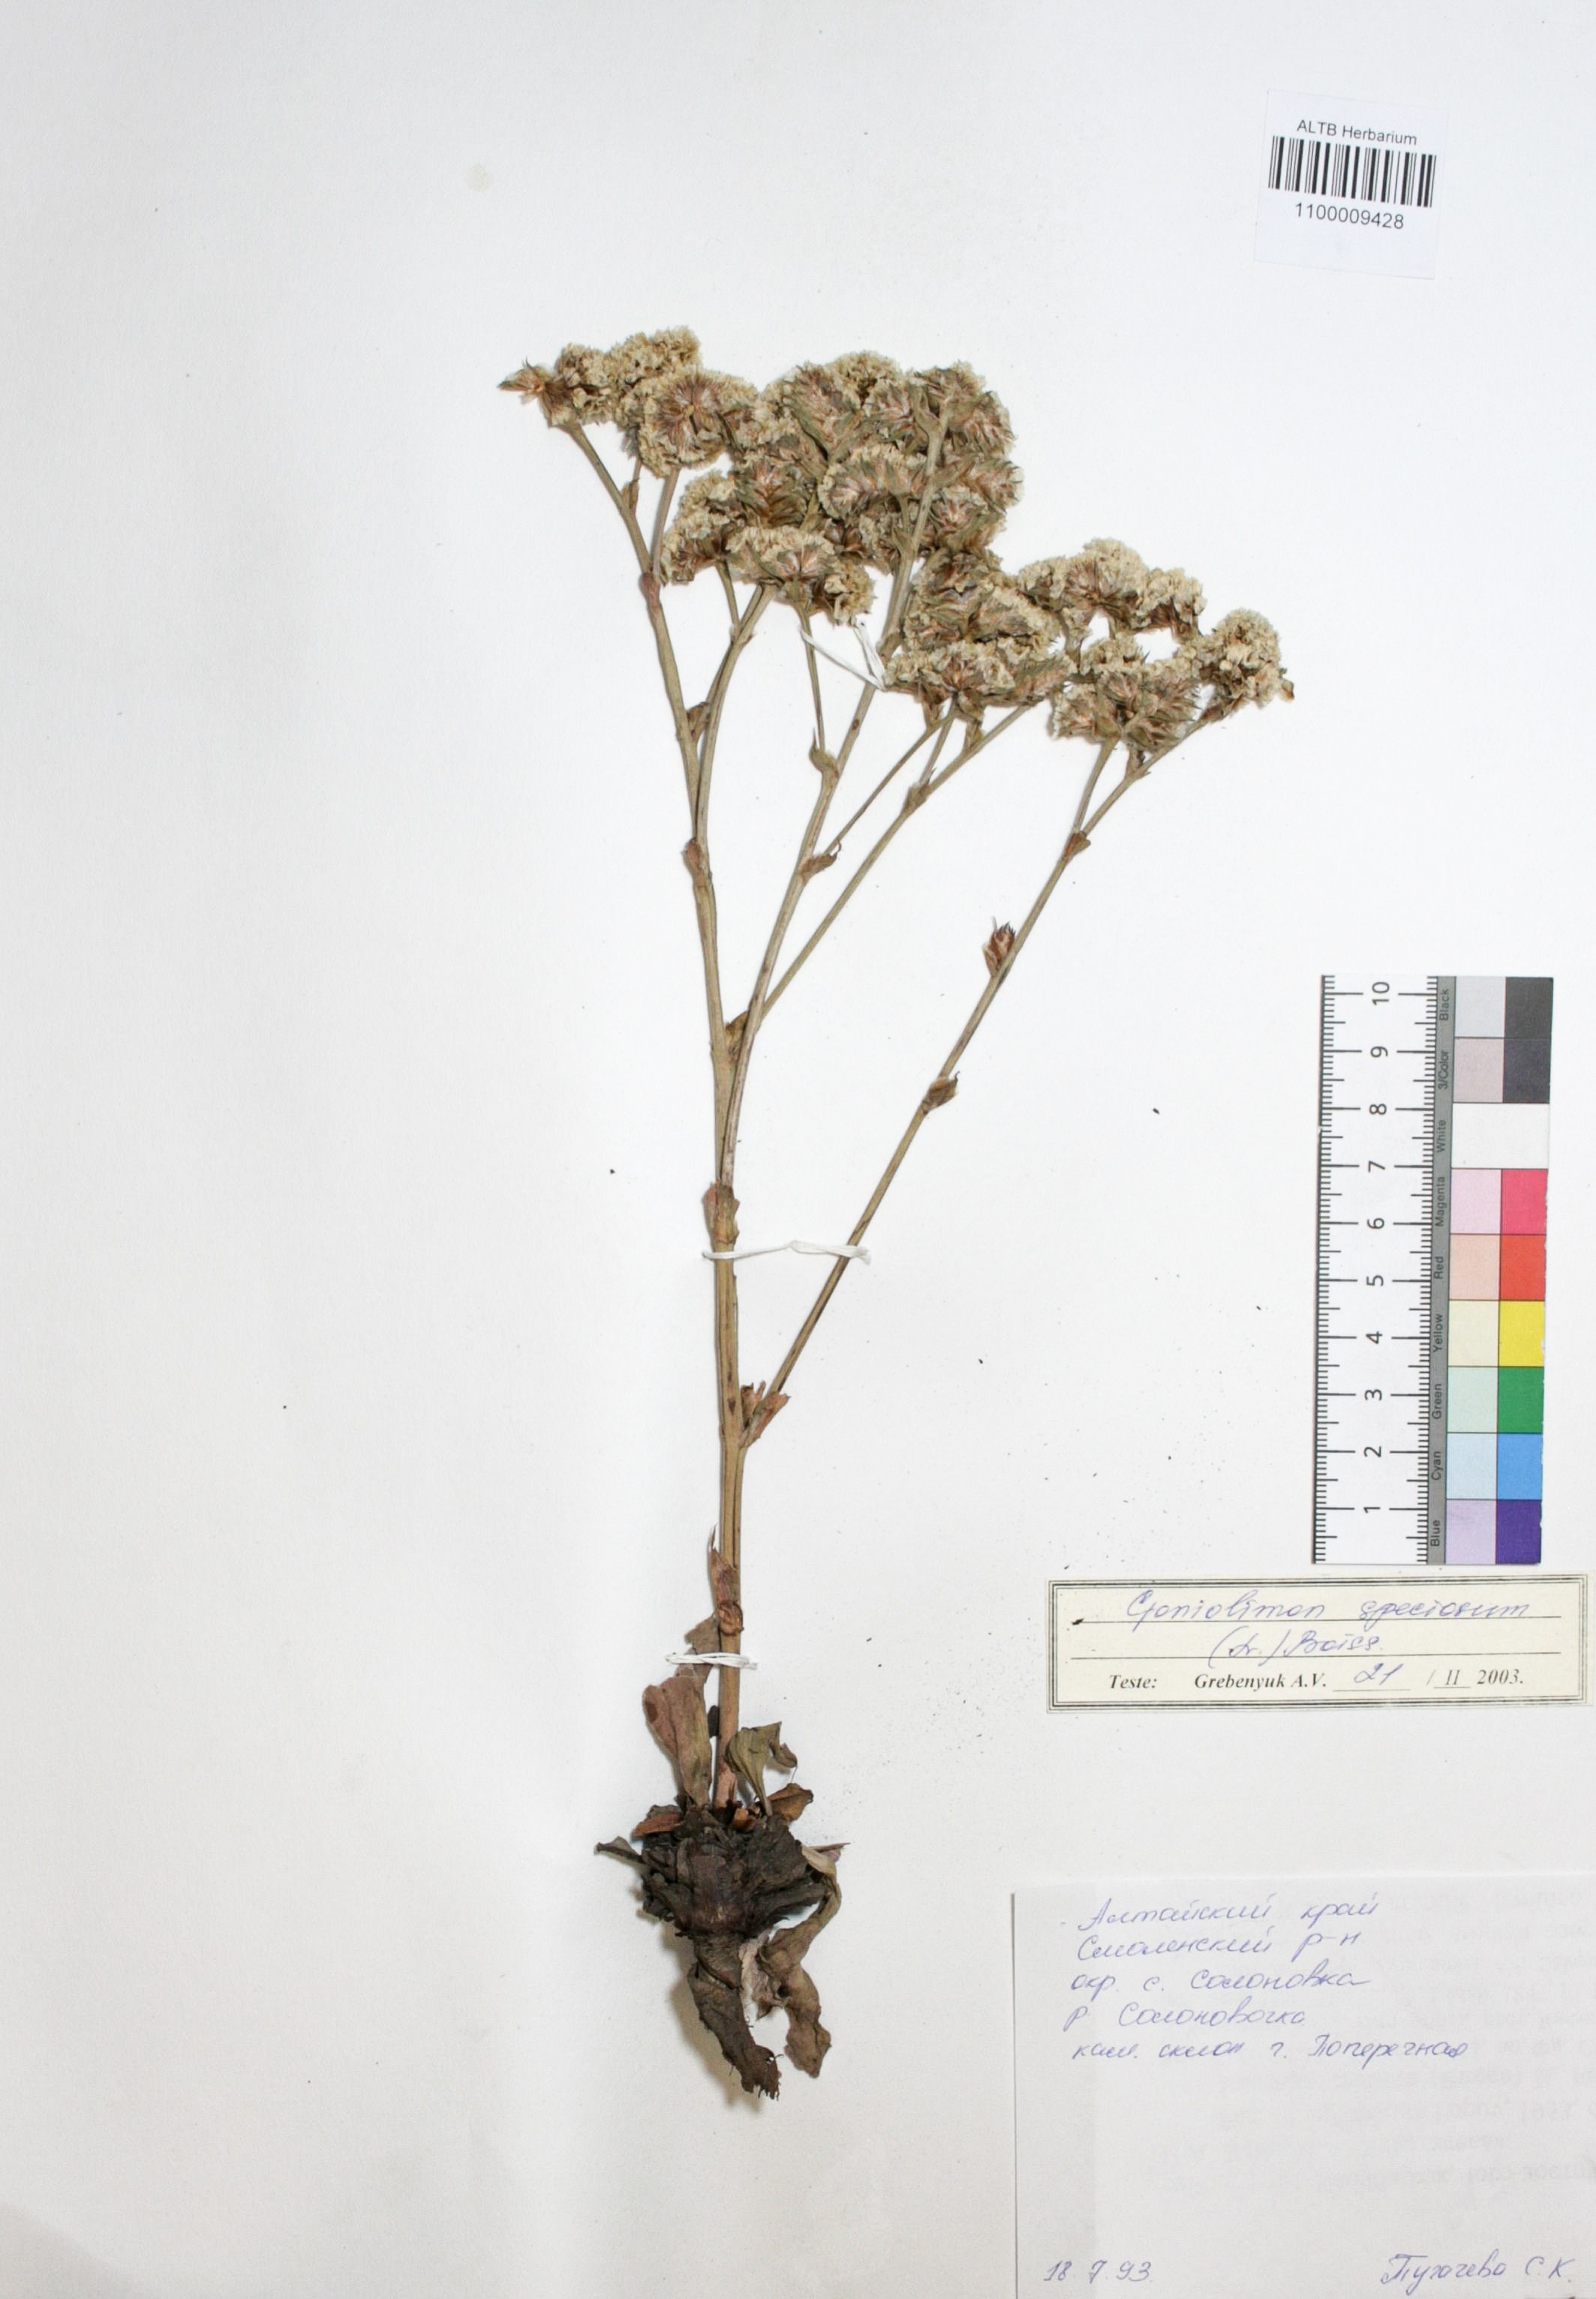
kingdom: Plantae
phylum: Tracheophyta
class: Magnoliopsida
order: Caryophyllales
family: Plumbaginaceae
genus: Goniolimon
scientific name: Goniolimon speciosum
